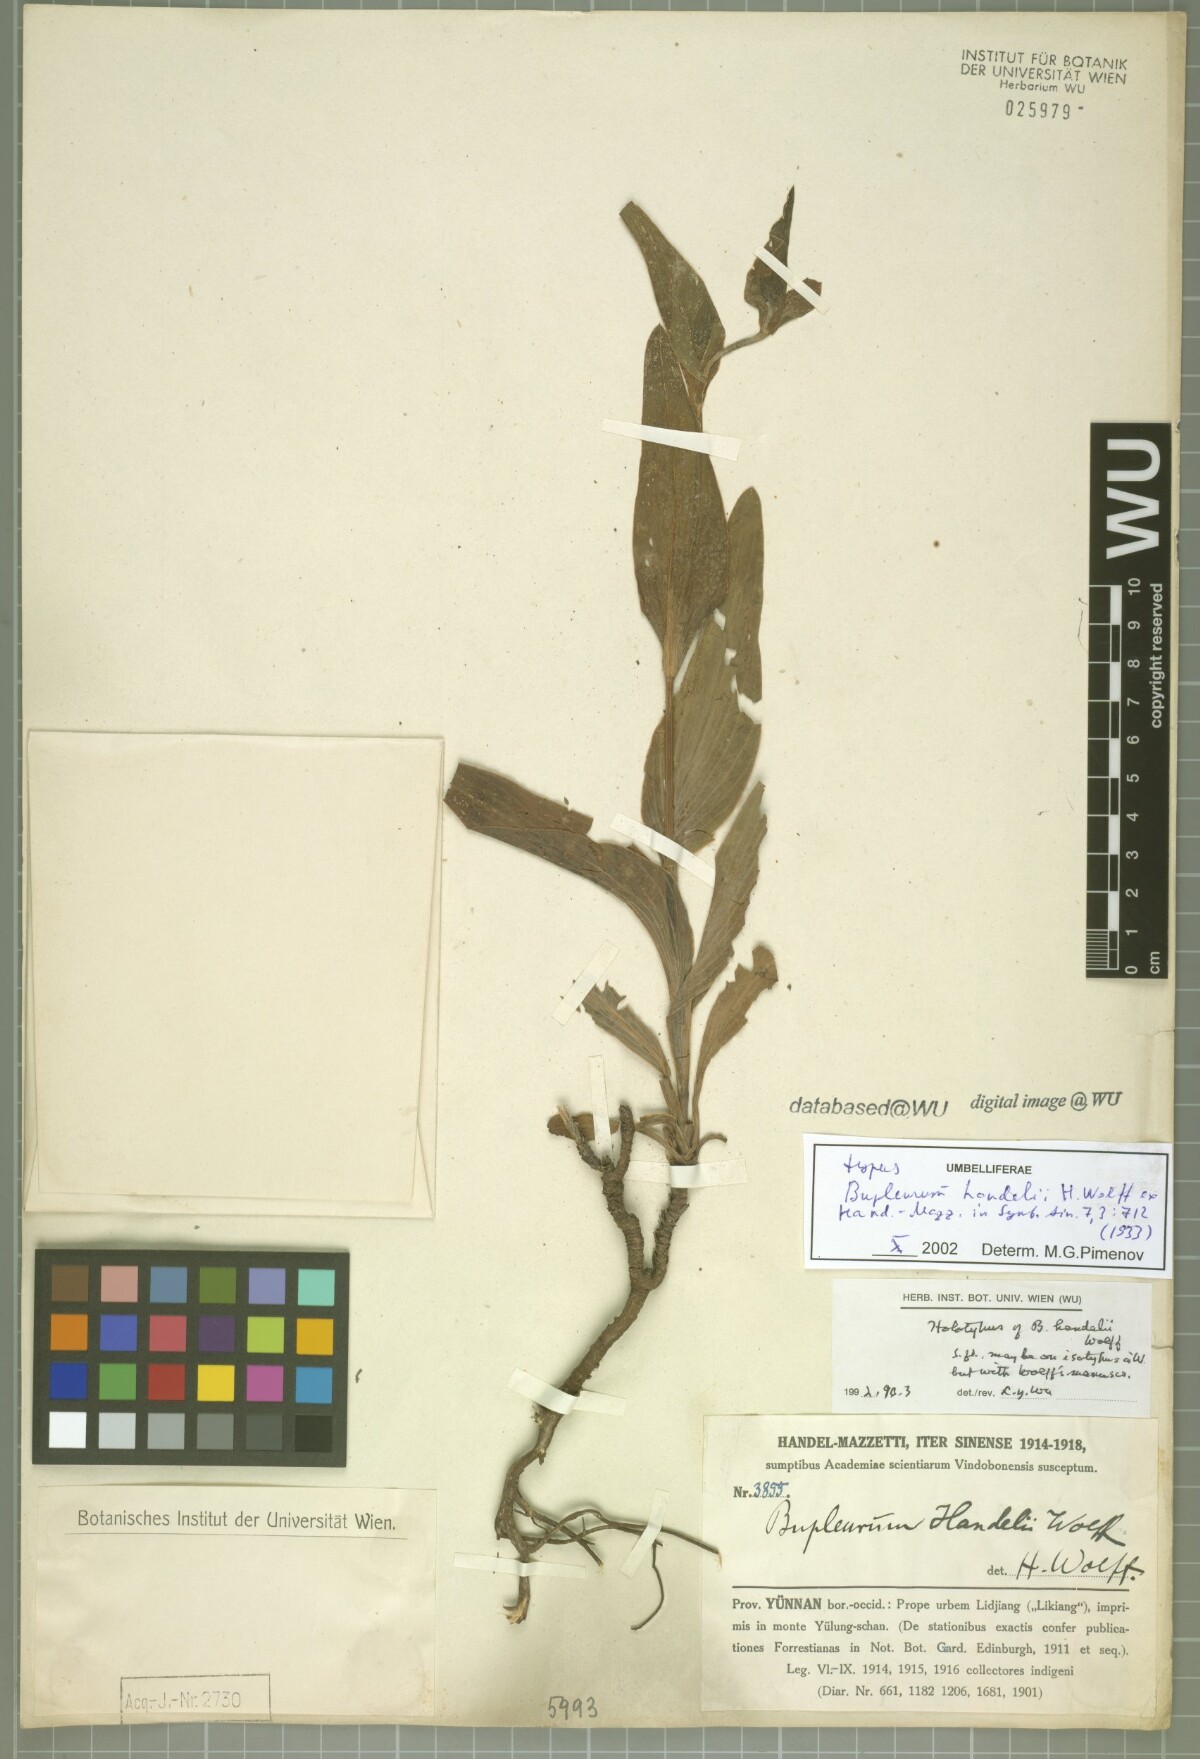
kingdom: Plantae
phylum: Tracheophyta
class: Magnoliopsida
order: Apiales
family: Apiaceae
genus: Bupleurum
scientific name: Bupleurum rockii
